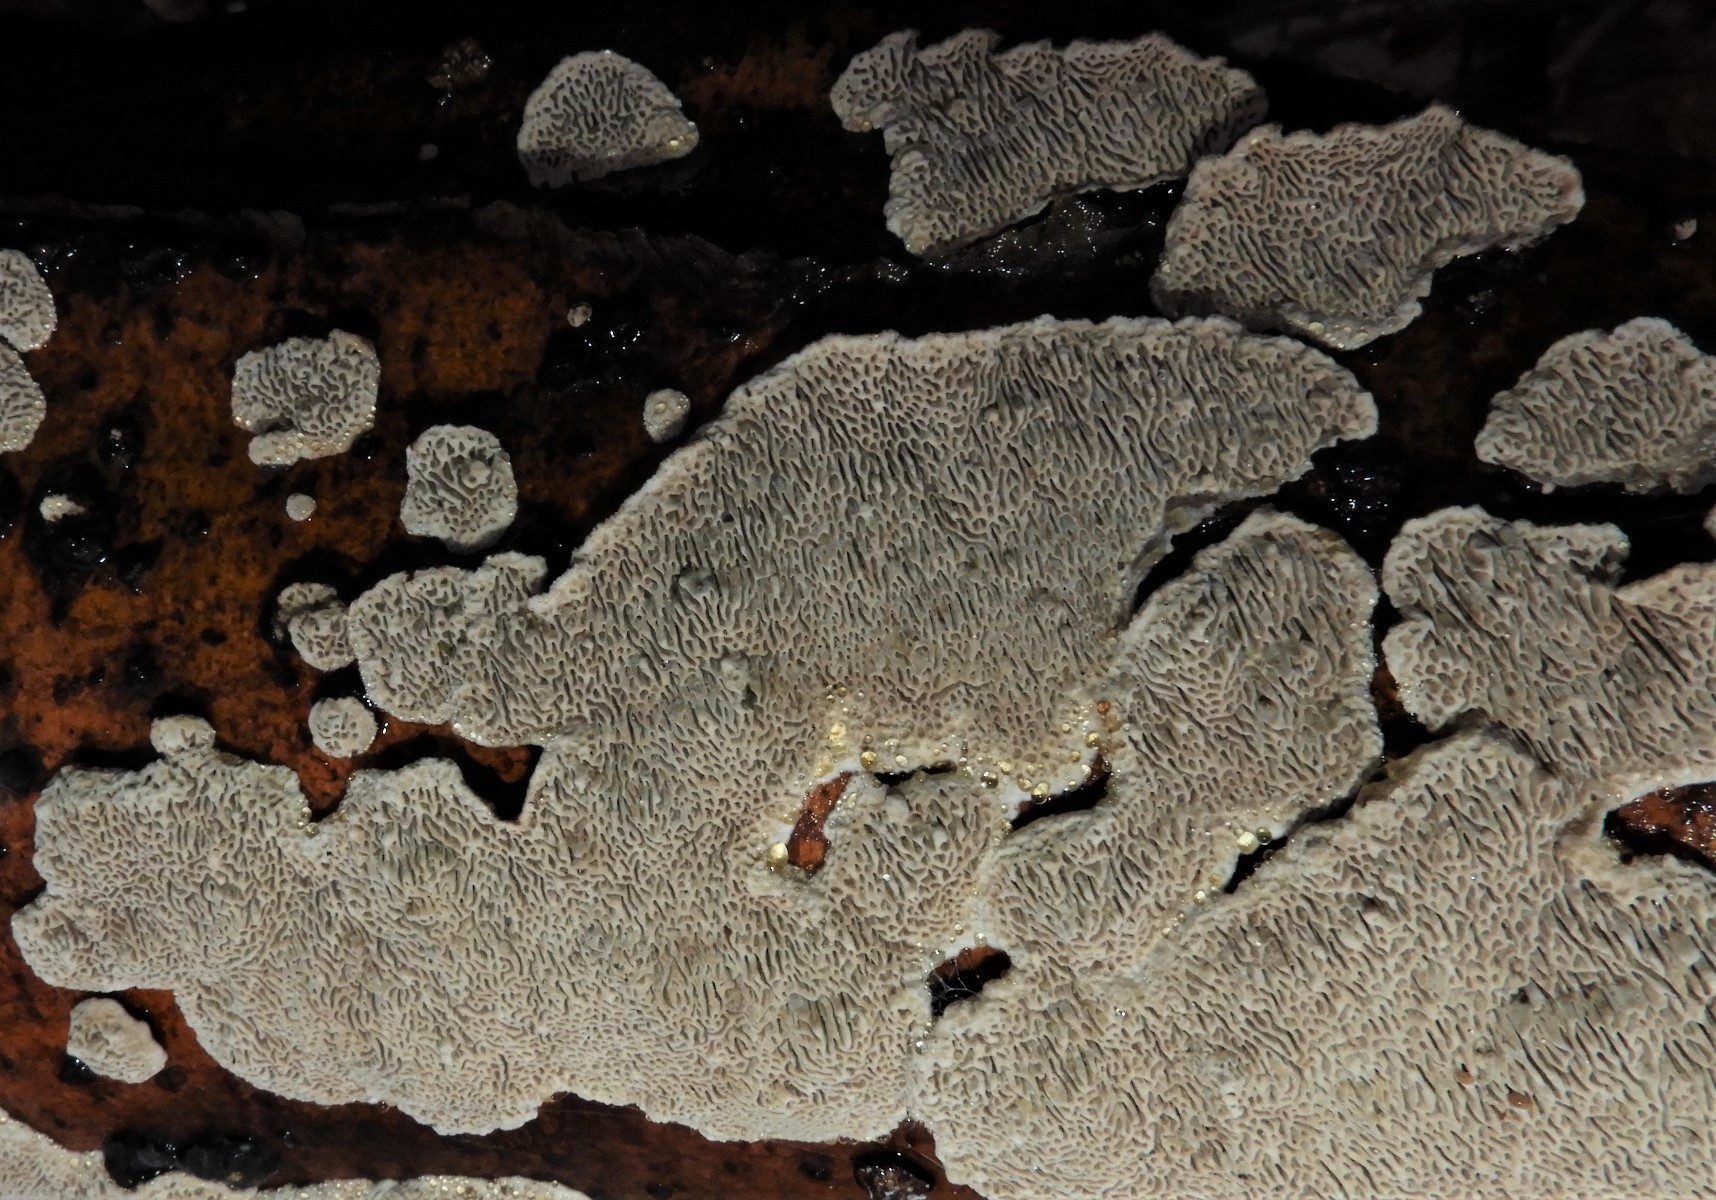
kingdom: Fungi
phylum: Basidiomycota
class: Agaricomycetes
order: Polyporales
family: Polyporaceae
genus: Podofomes
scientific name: Podofomes mollis
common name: blød begporesvamp
